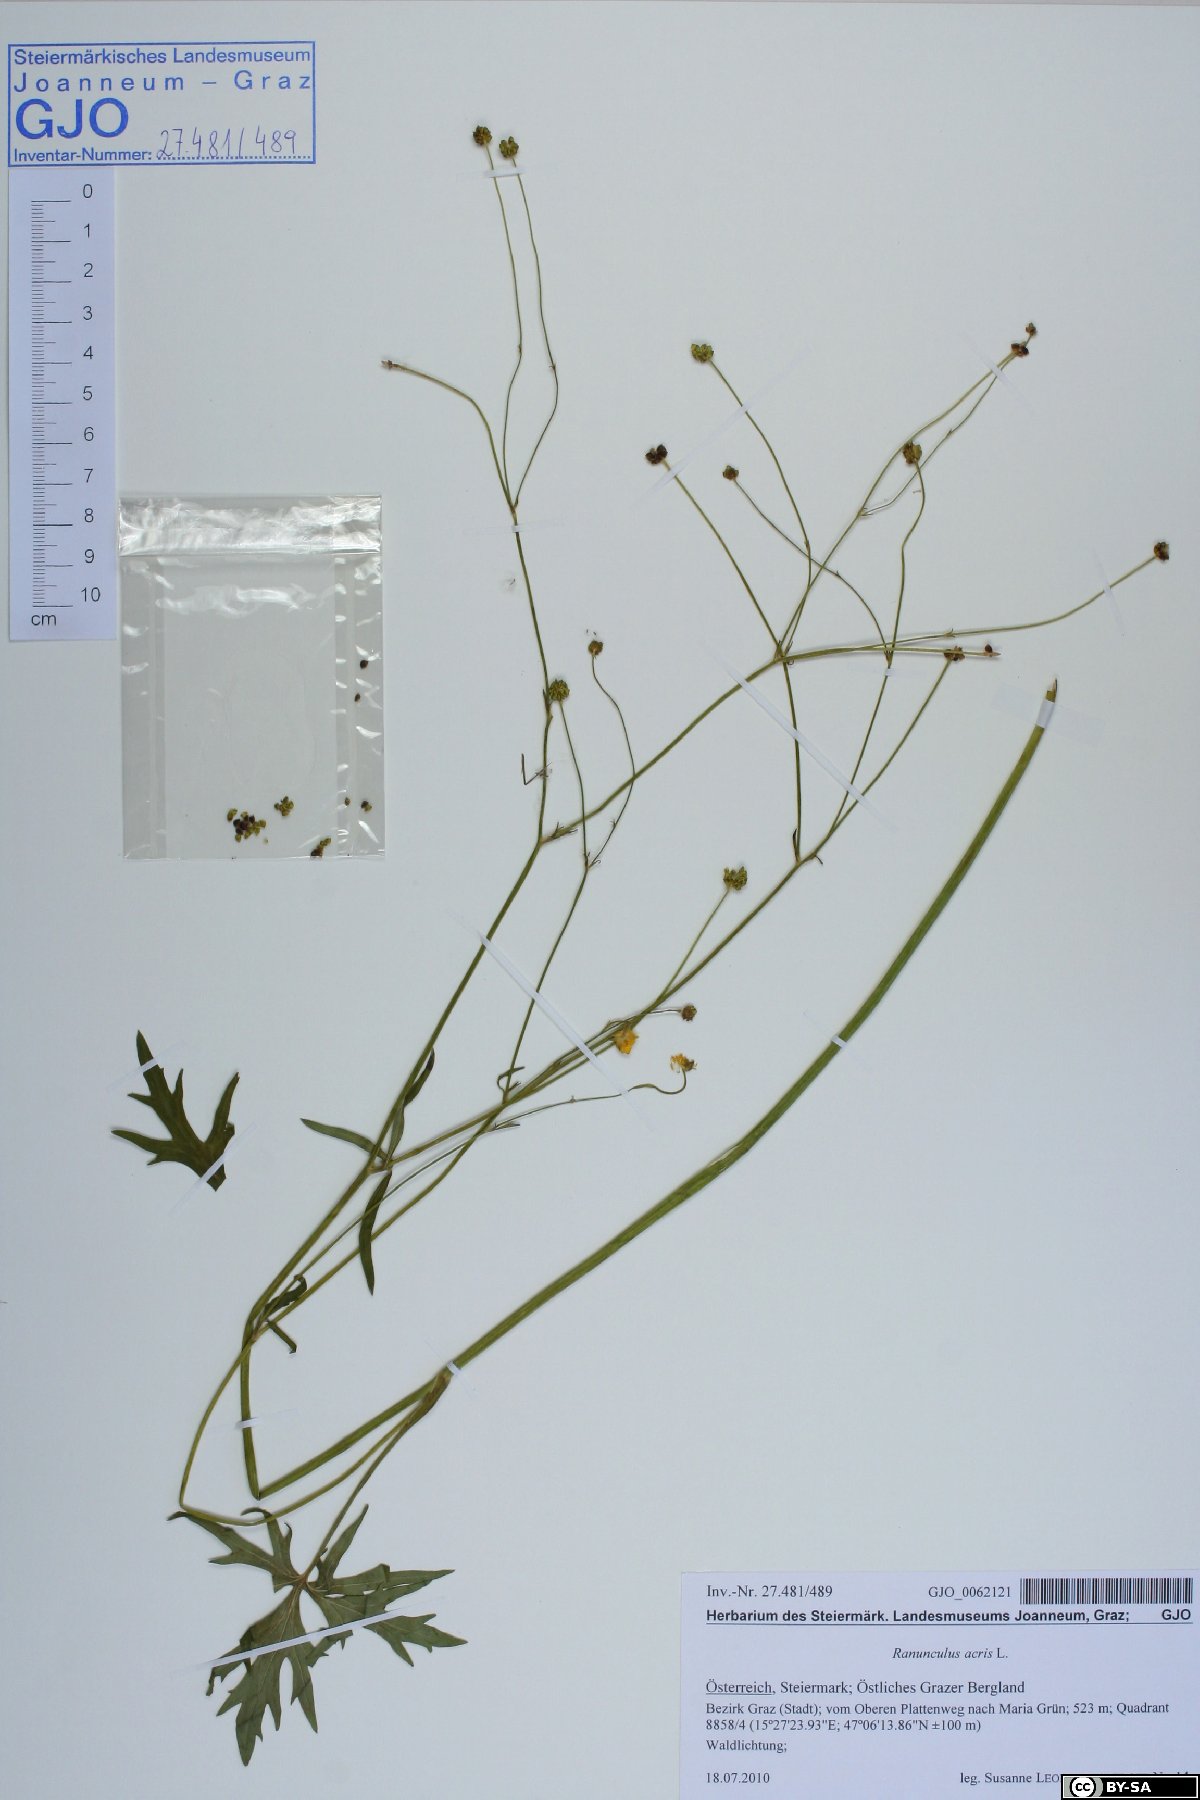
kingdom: Plantae
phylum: Tracheophyta
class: Magnoliopsida
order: Ranunculales
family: Ranunculaceae
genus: Ranunculus
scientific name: Ranunculus acris
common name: Meadow buttercup
